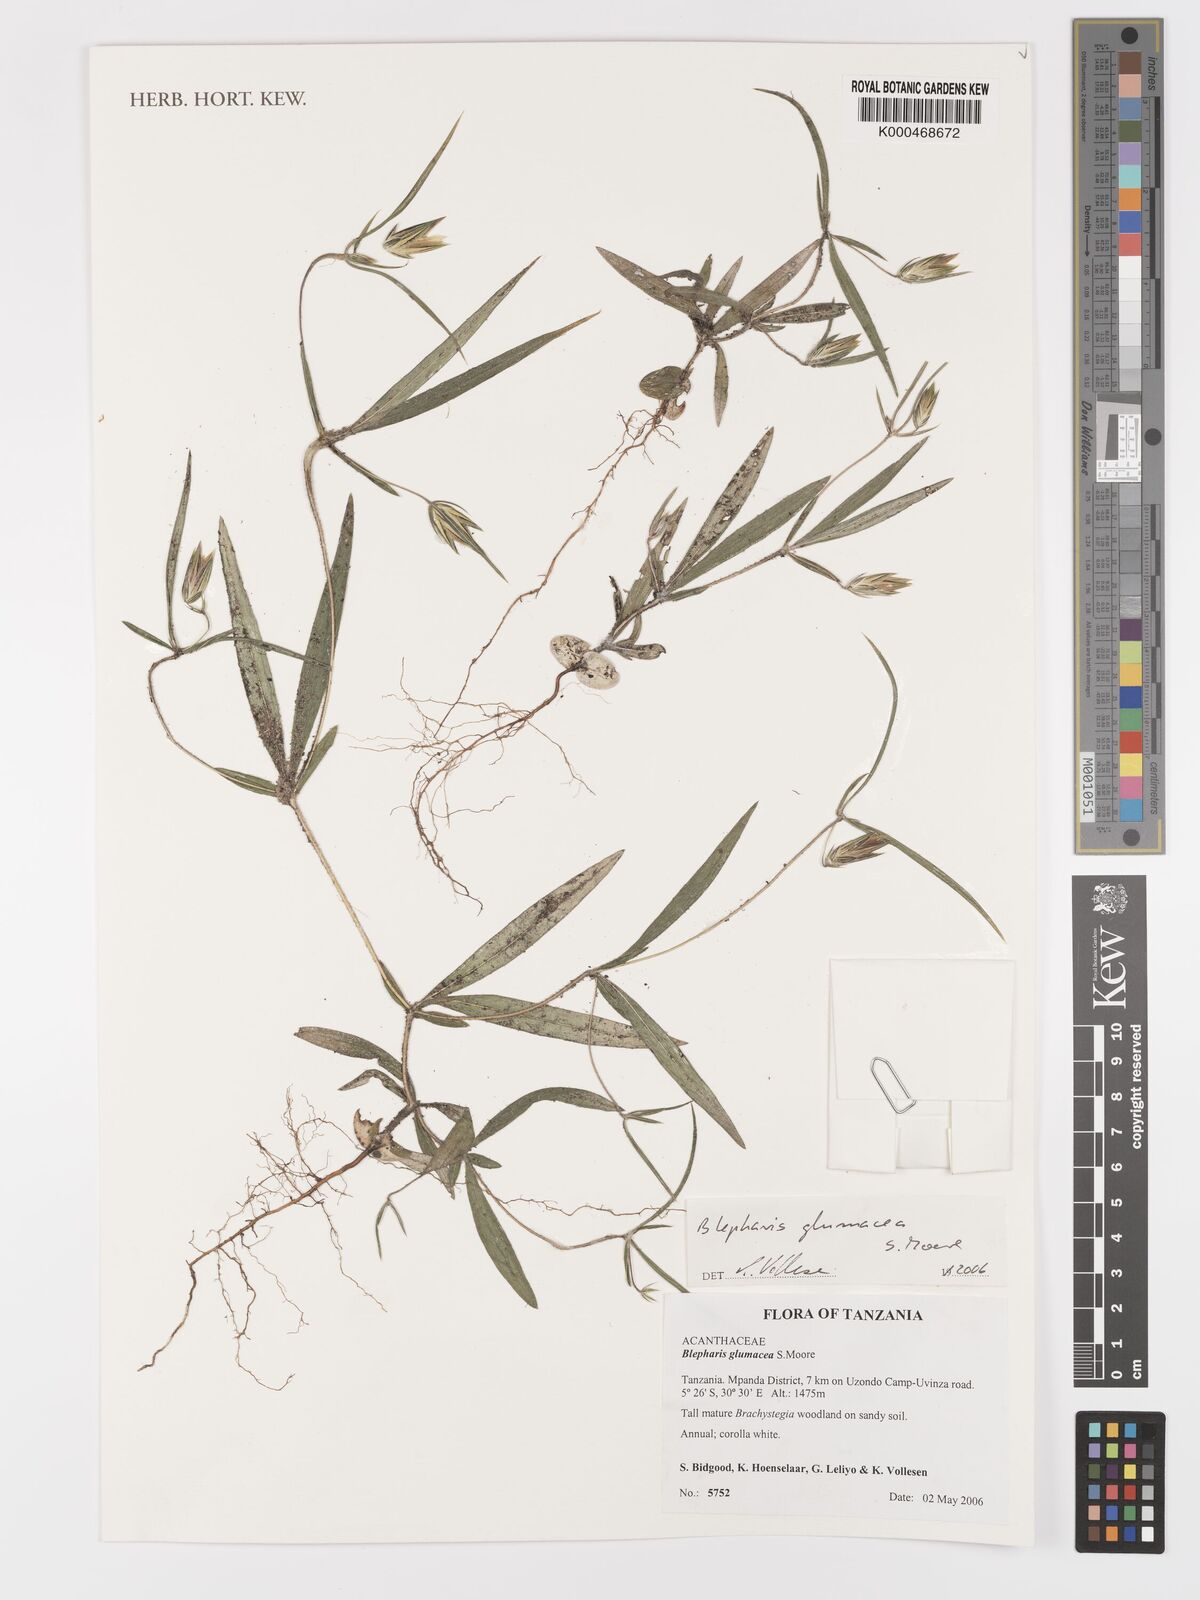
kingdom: Plantae
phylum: Tracheophyta
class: Magnoliopsida
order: Lamiales
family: Acanthaceae
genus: Blepharis
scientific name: Blepharis glumacea
